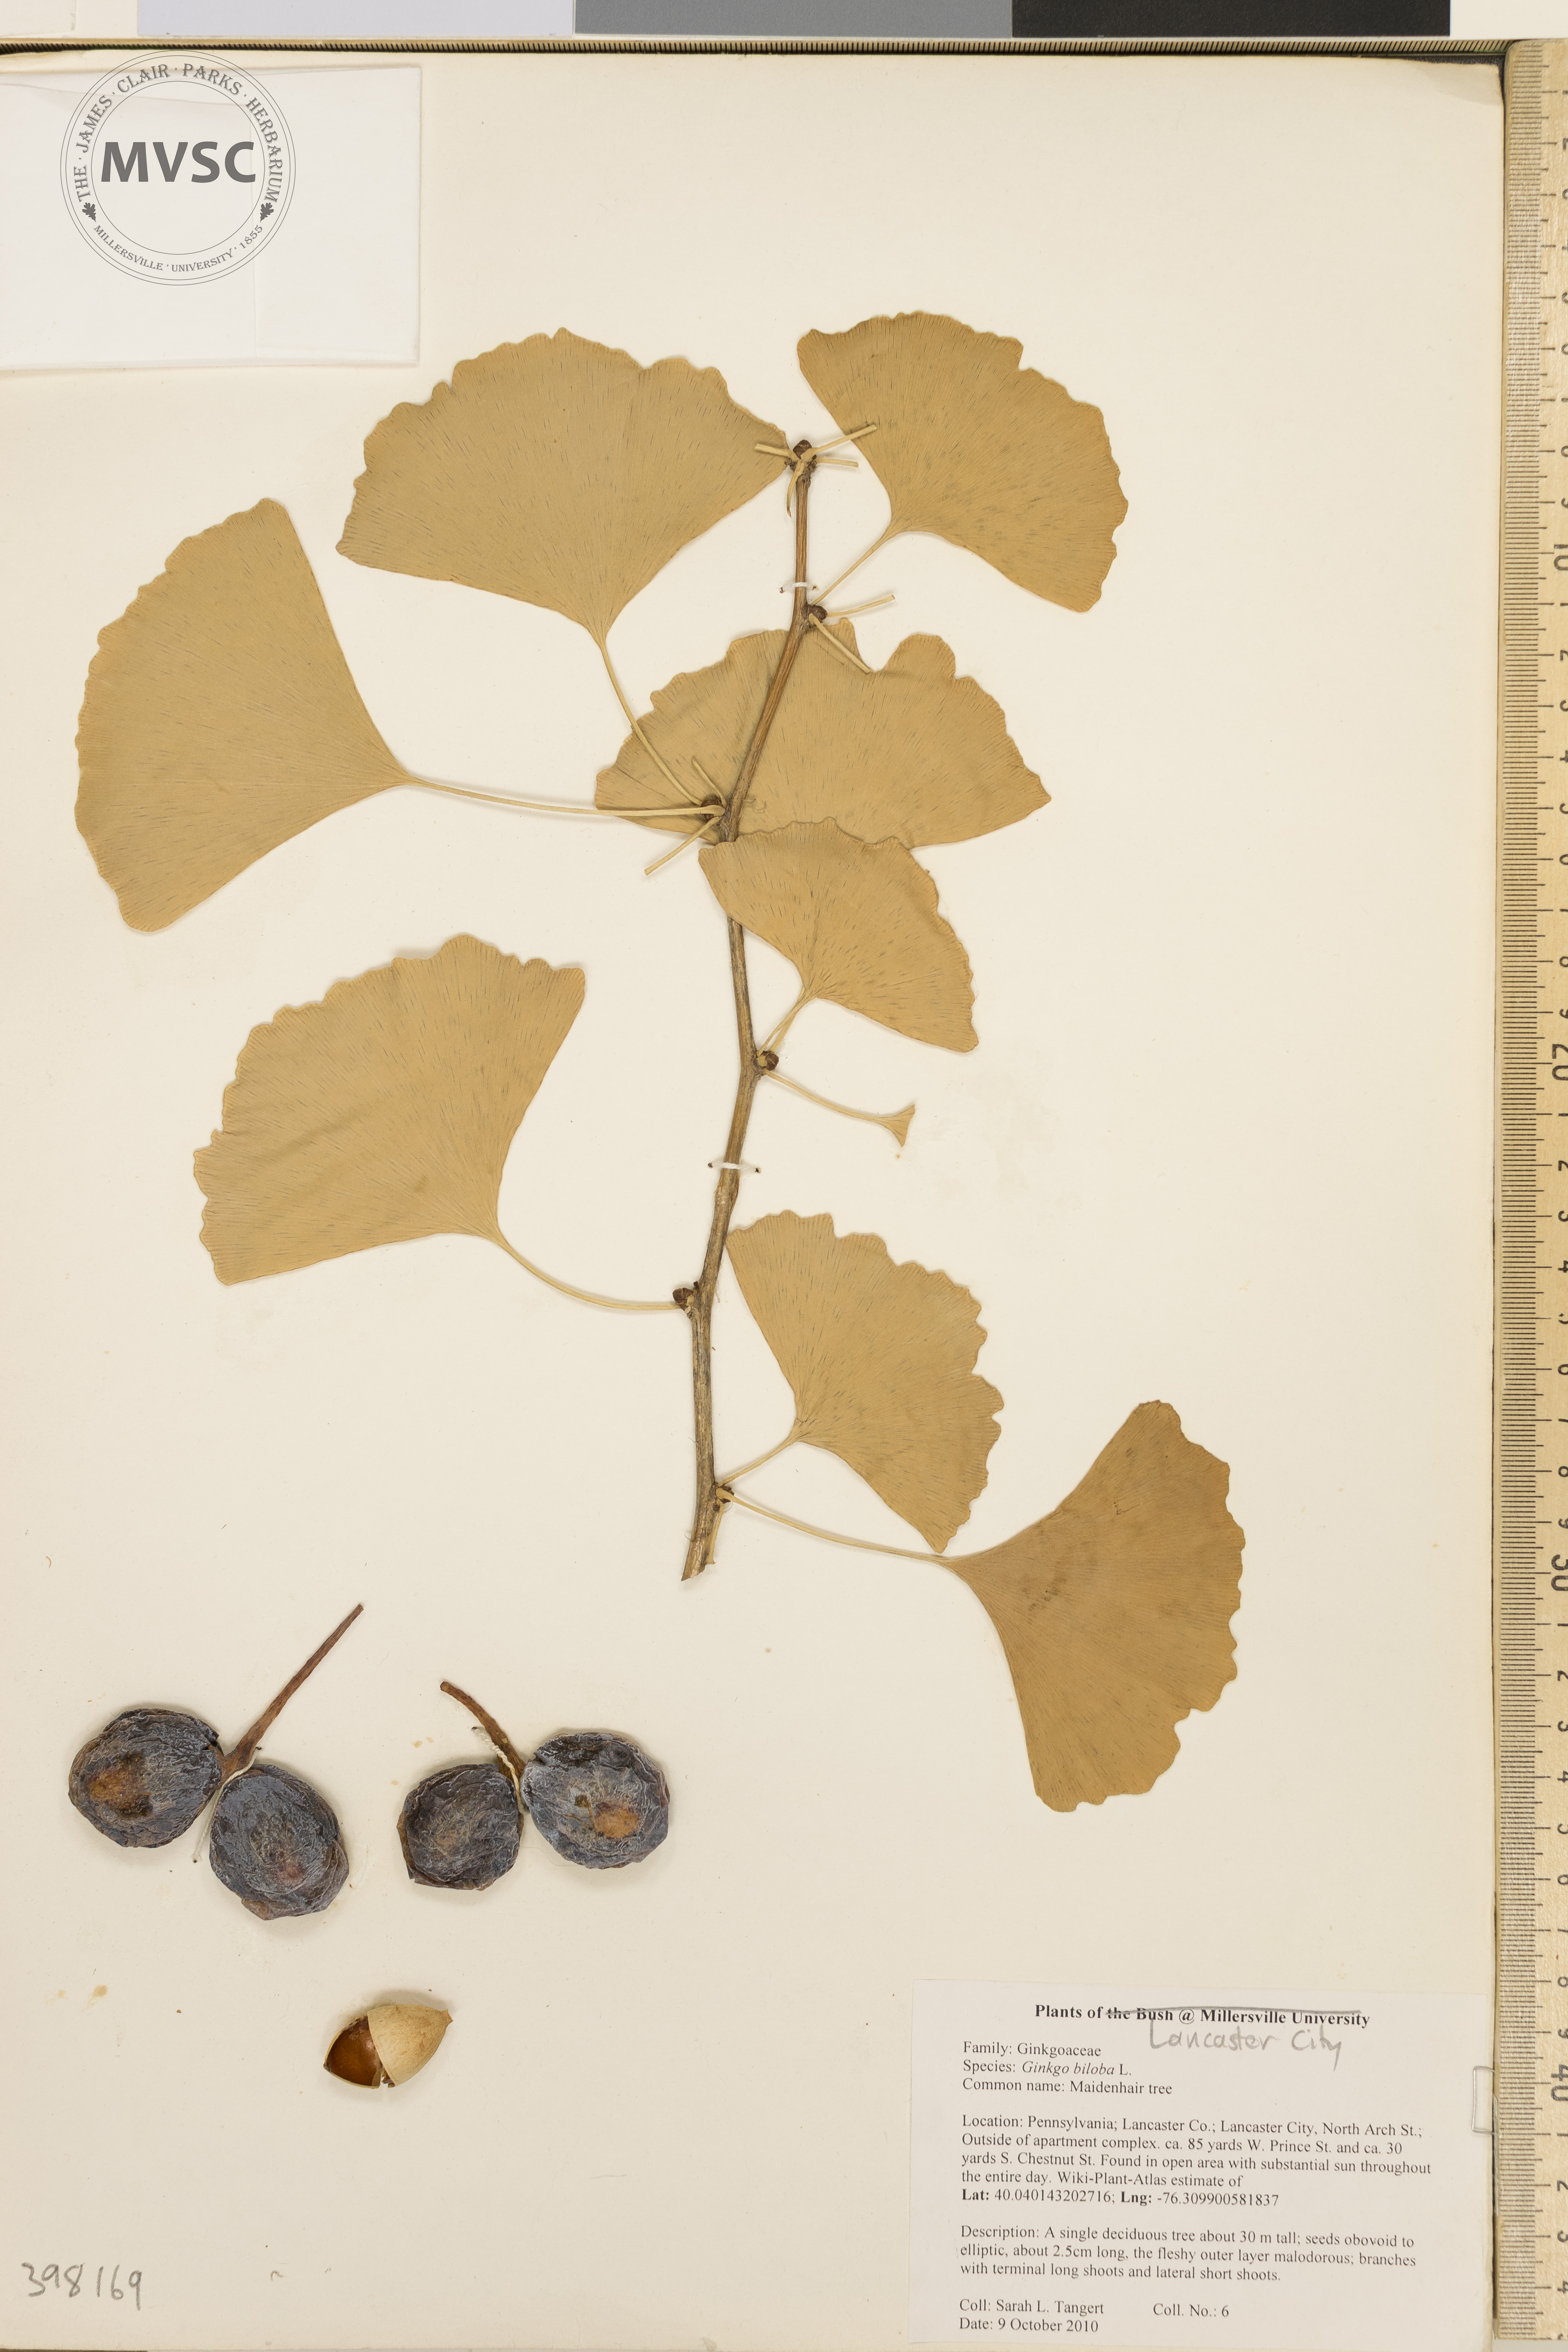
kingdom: Plantae
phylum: Tracheophyta
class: Ginkgoopsida
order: Ginkgoales
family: Ginkgoaceae
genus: Ginkgo
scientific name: Ginkgo biloba
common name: Maidenhair tree
